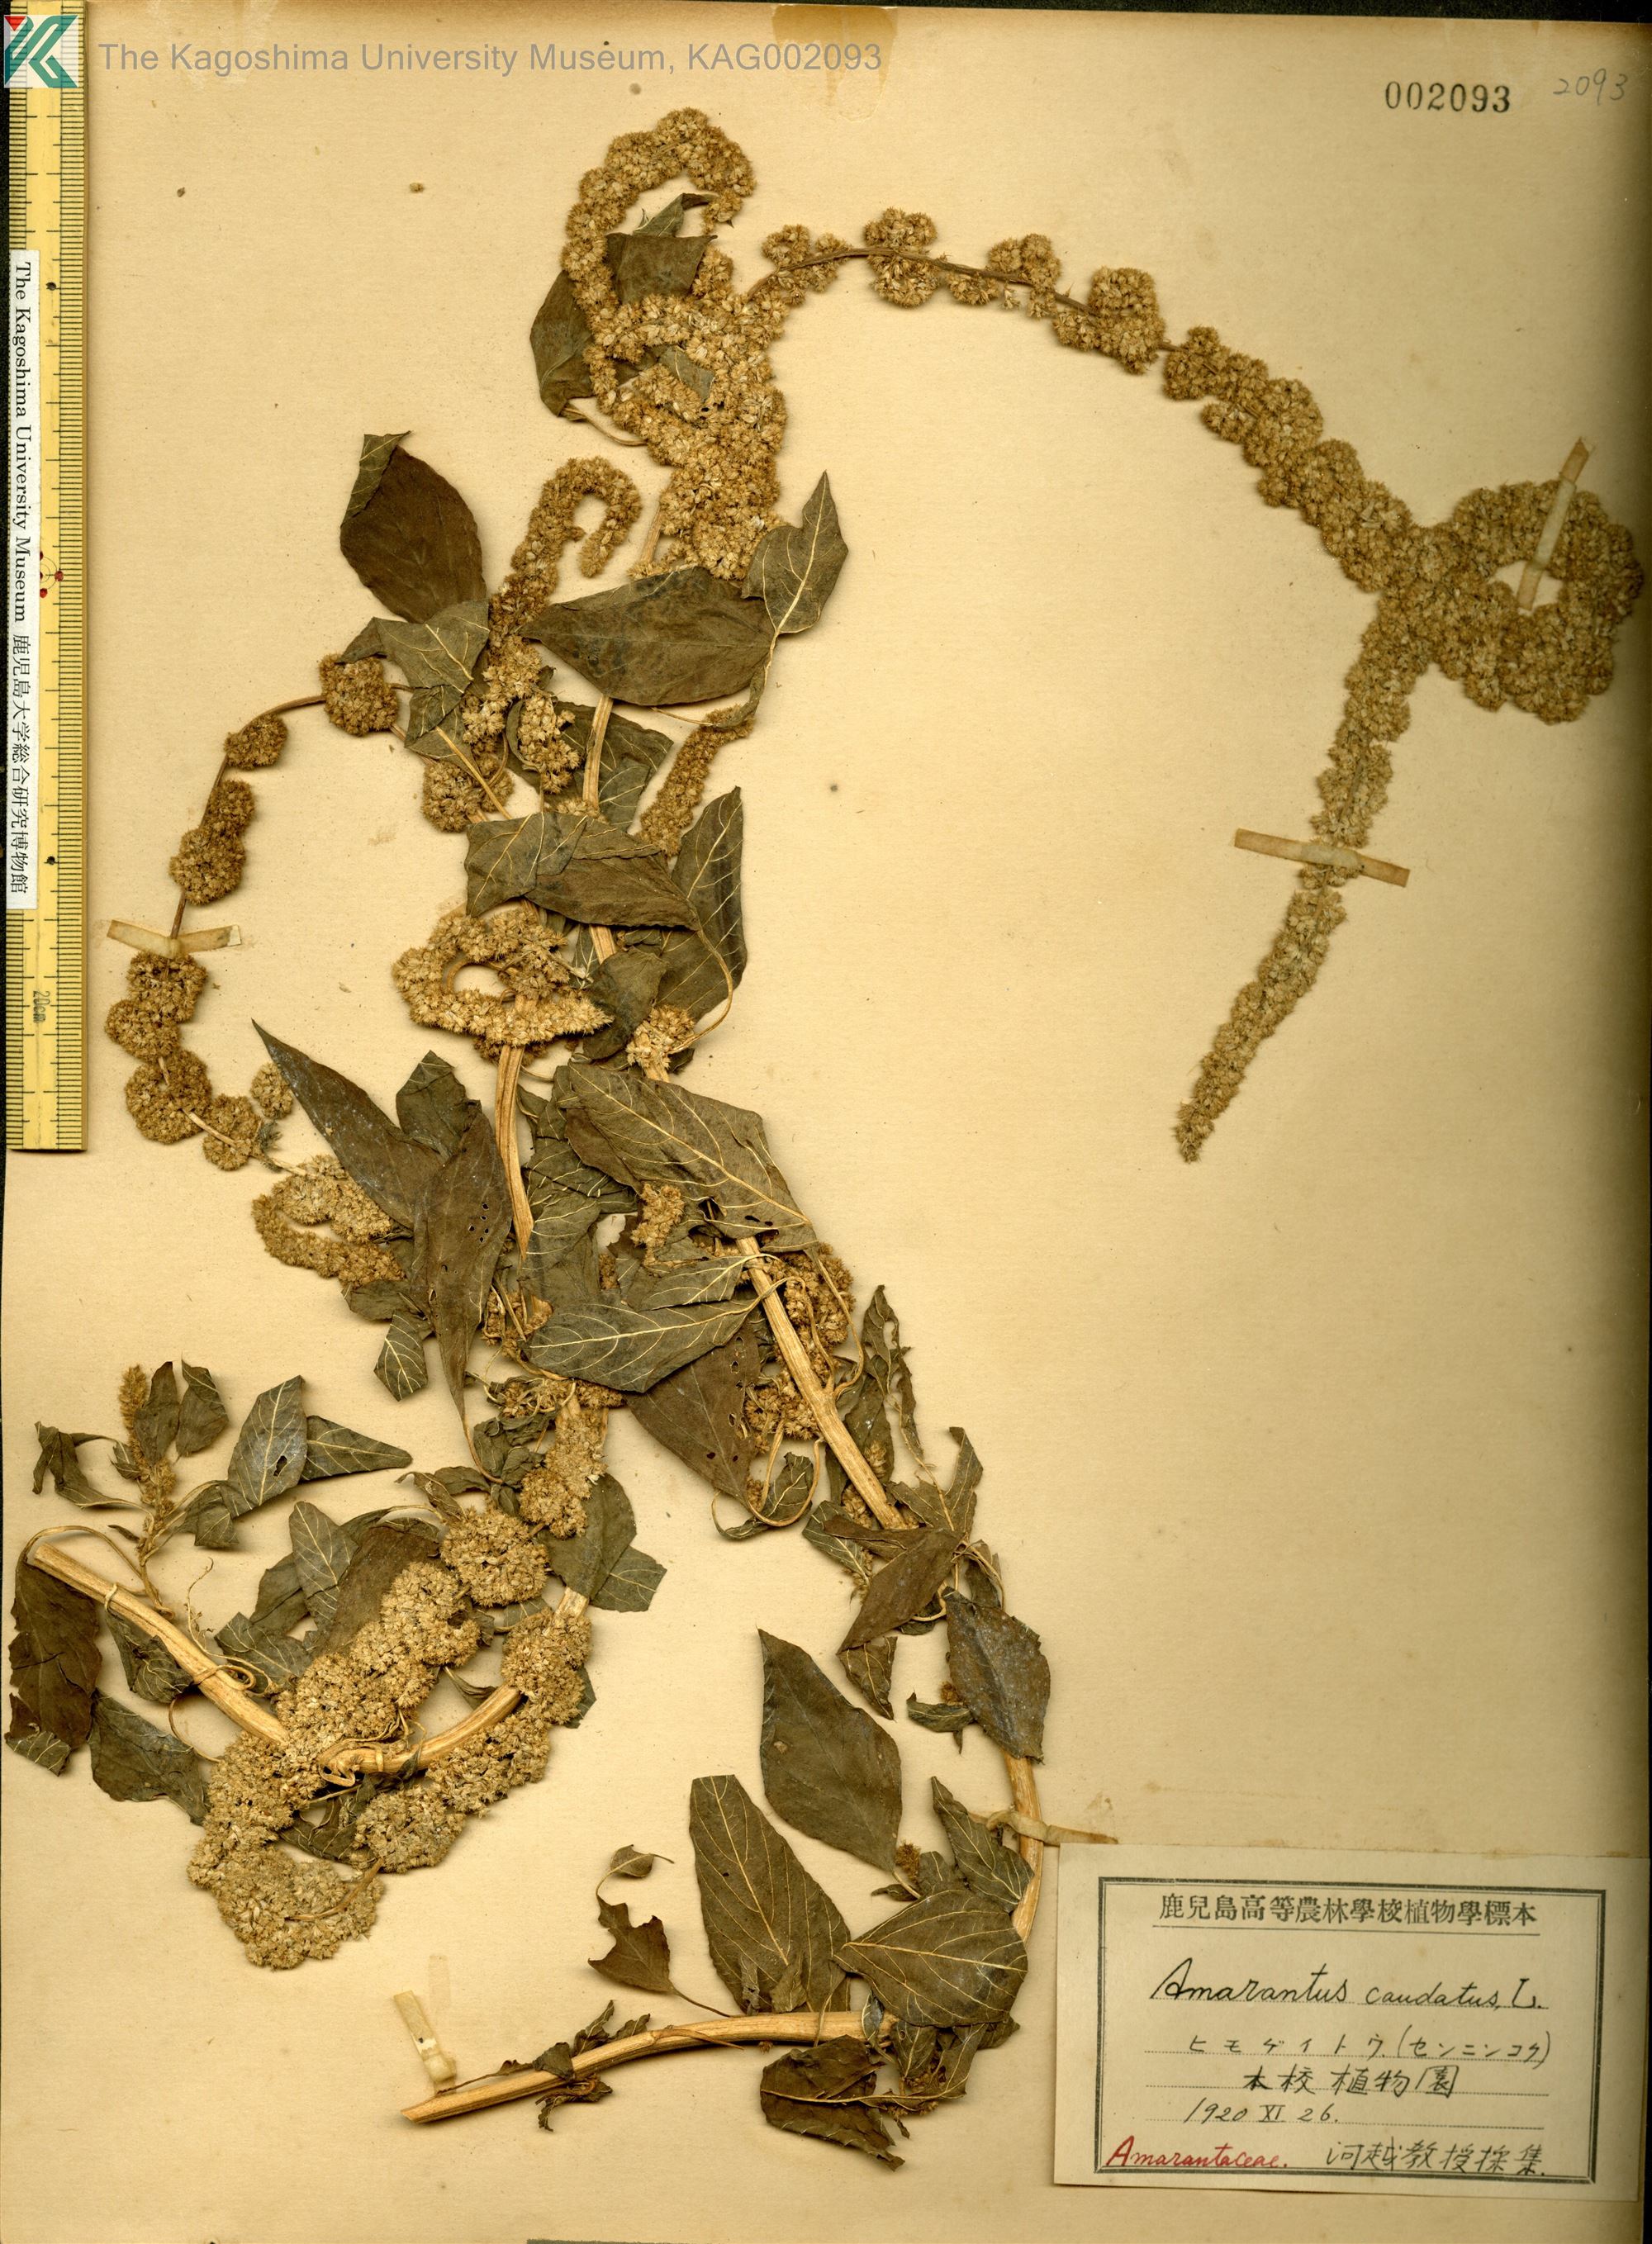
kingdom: Plantae
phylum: Tracheophyta
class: Magnoliopsida
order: Caryophyllales
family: Amaranthaceae
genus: Amaranthus
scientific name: Amaranthus caudatus
